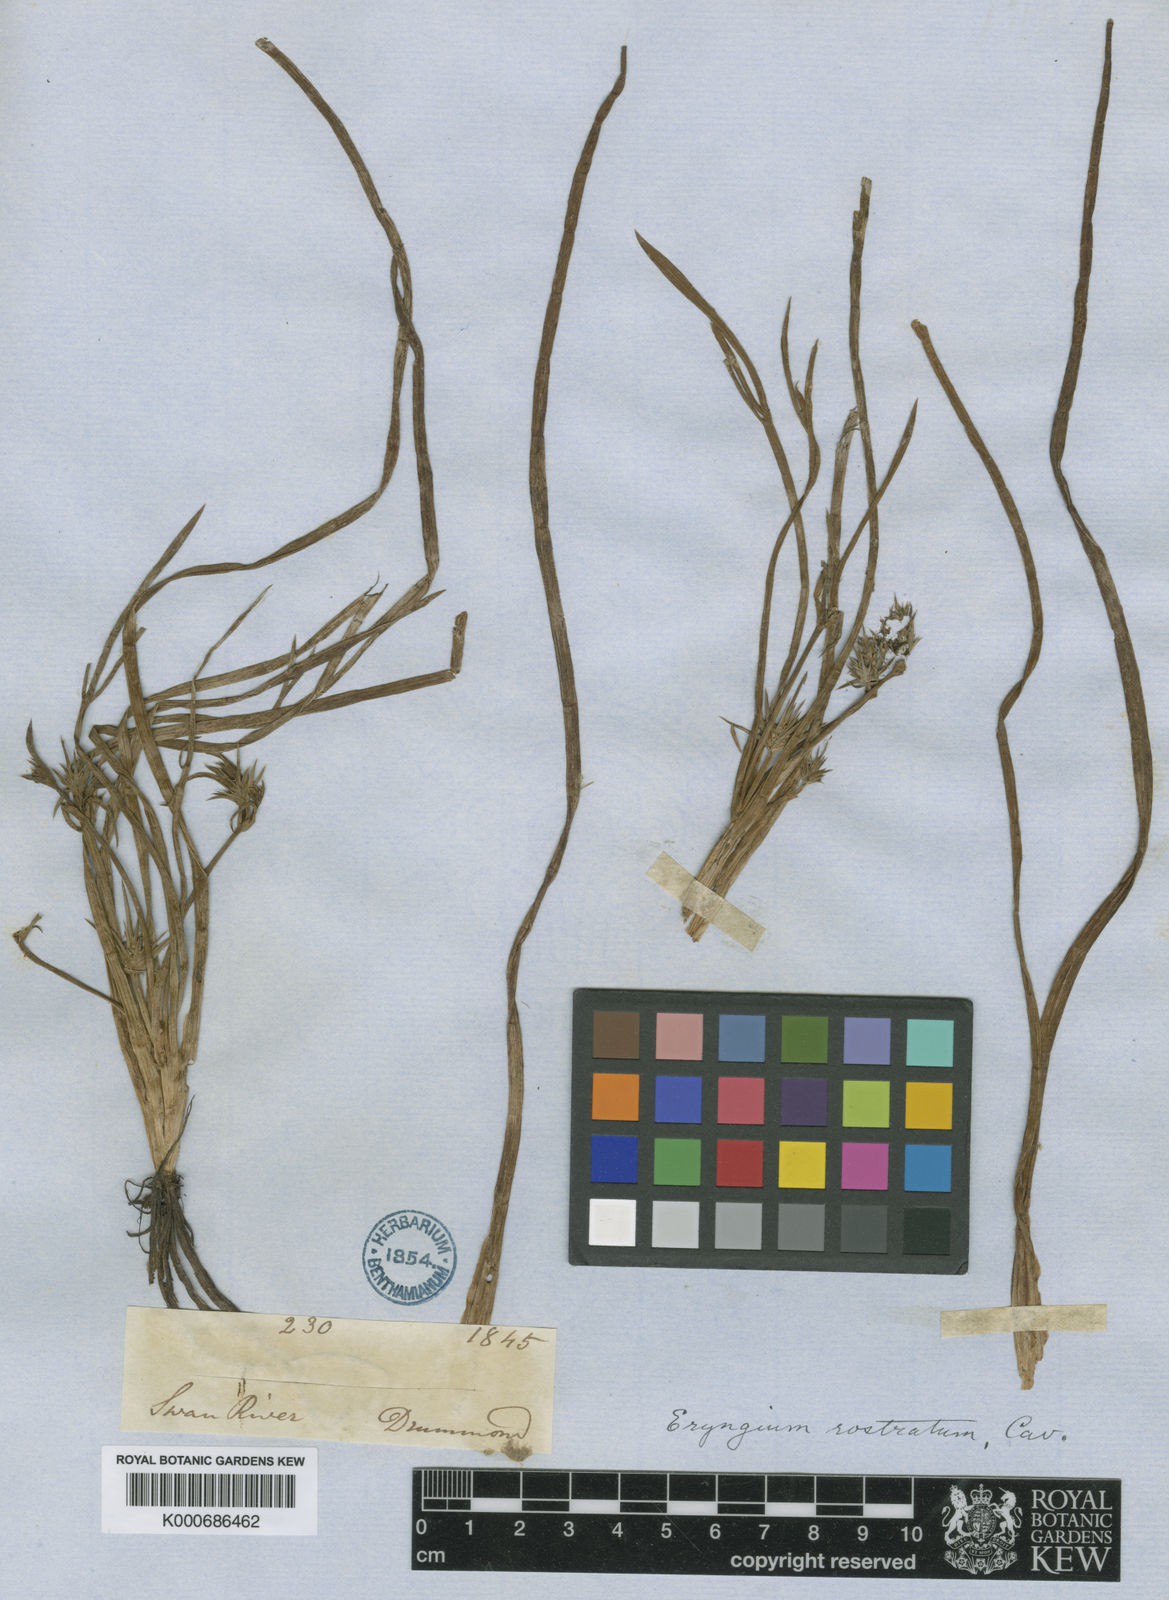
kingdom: Plantae
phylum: Tracheophyta
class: Magnoliopsida
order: Apiales
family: Apiaceae
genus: Eryngium
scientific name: Eryngium rostratum
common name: Blue eryngo
